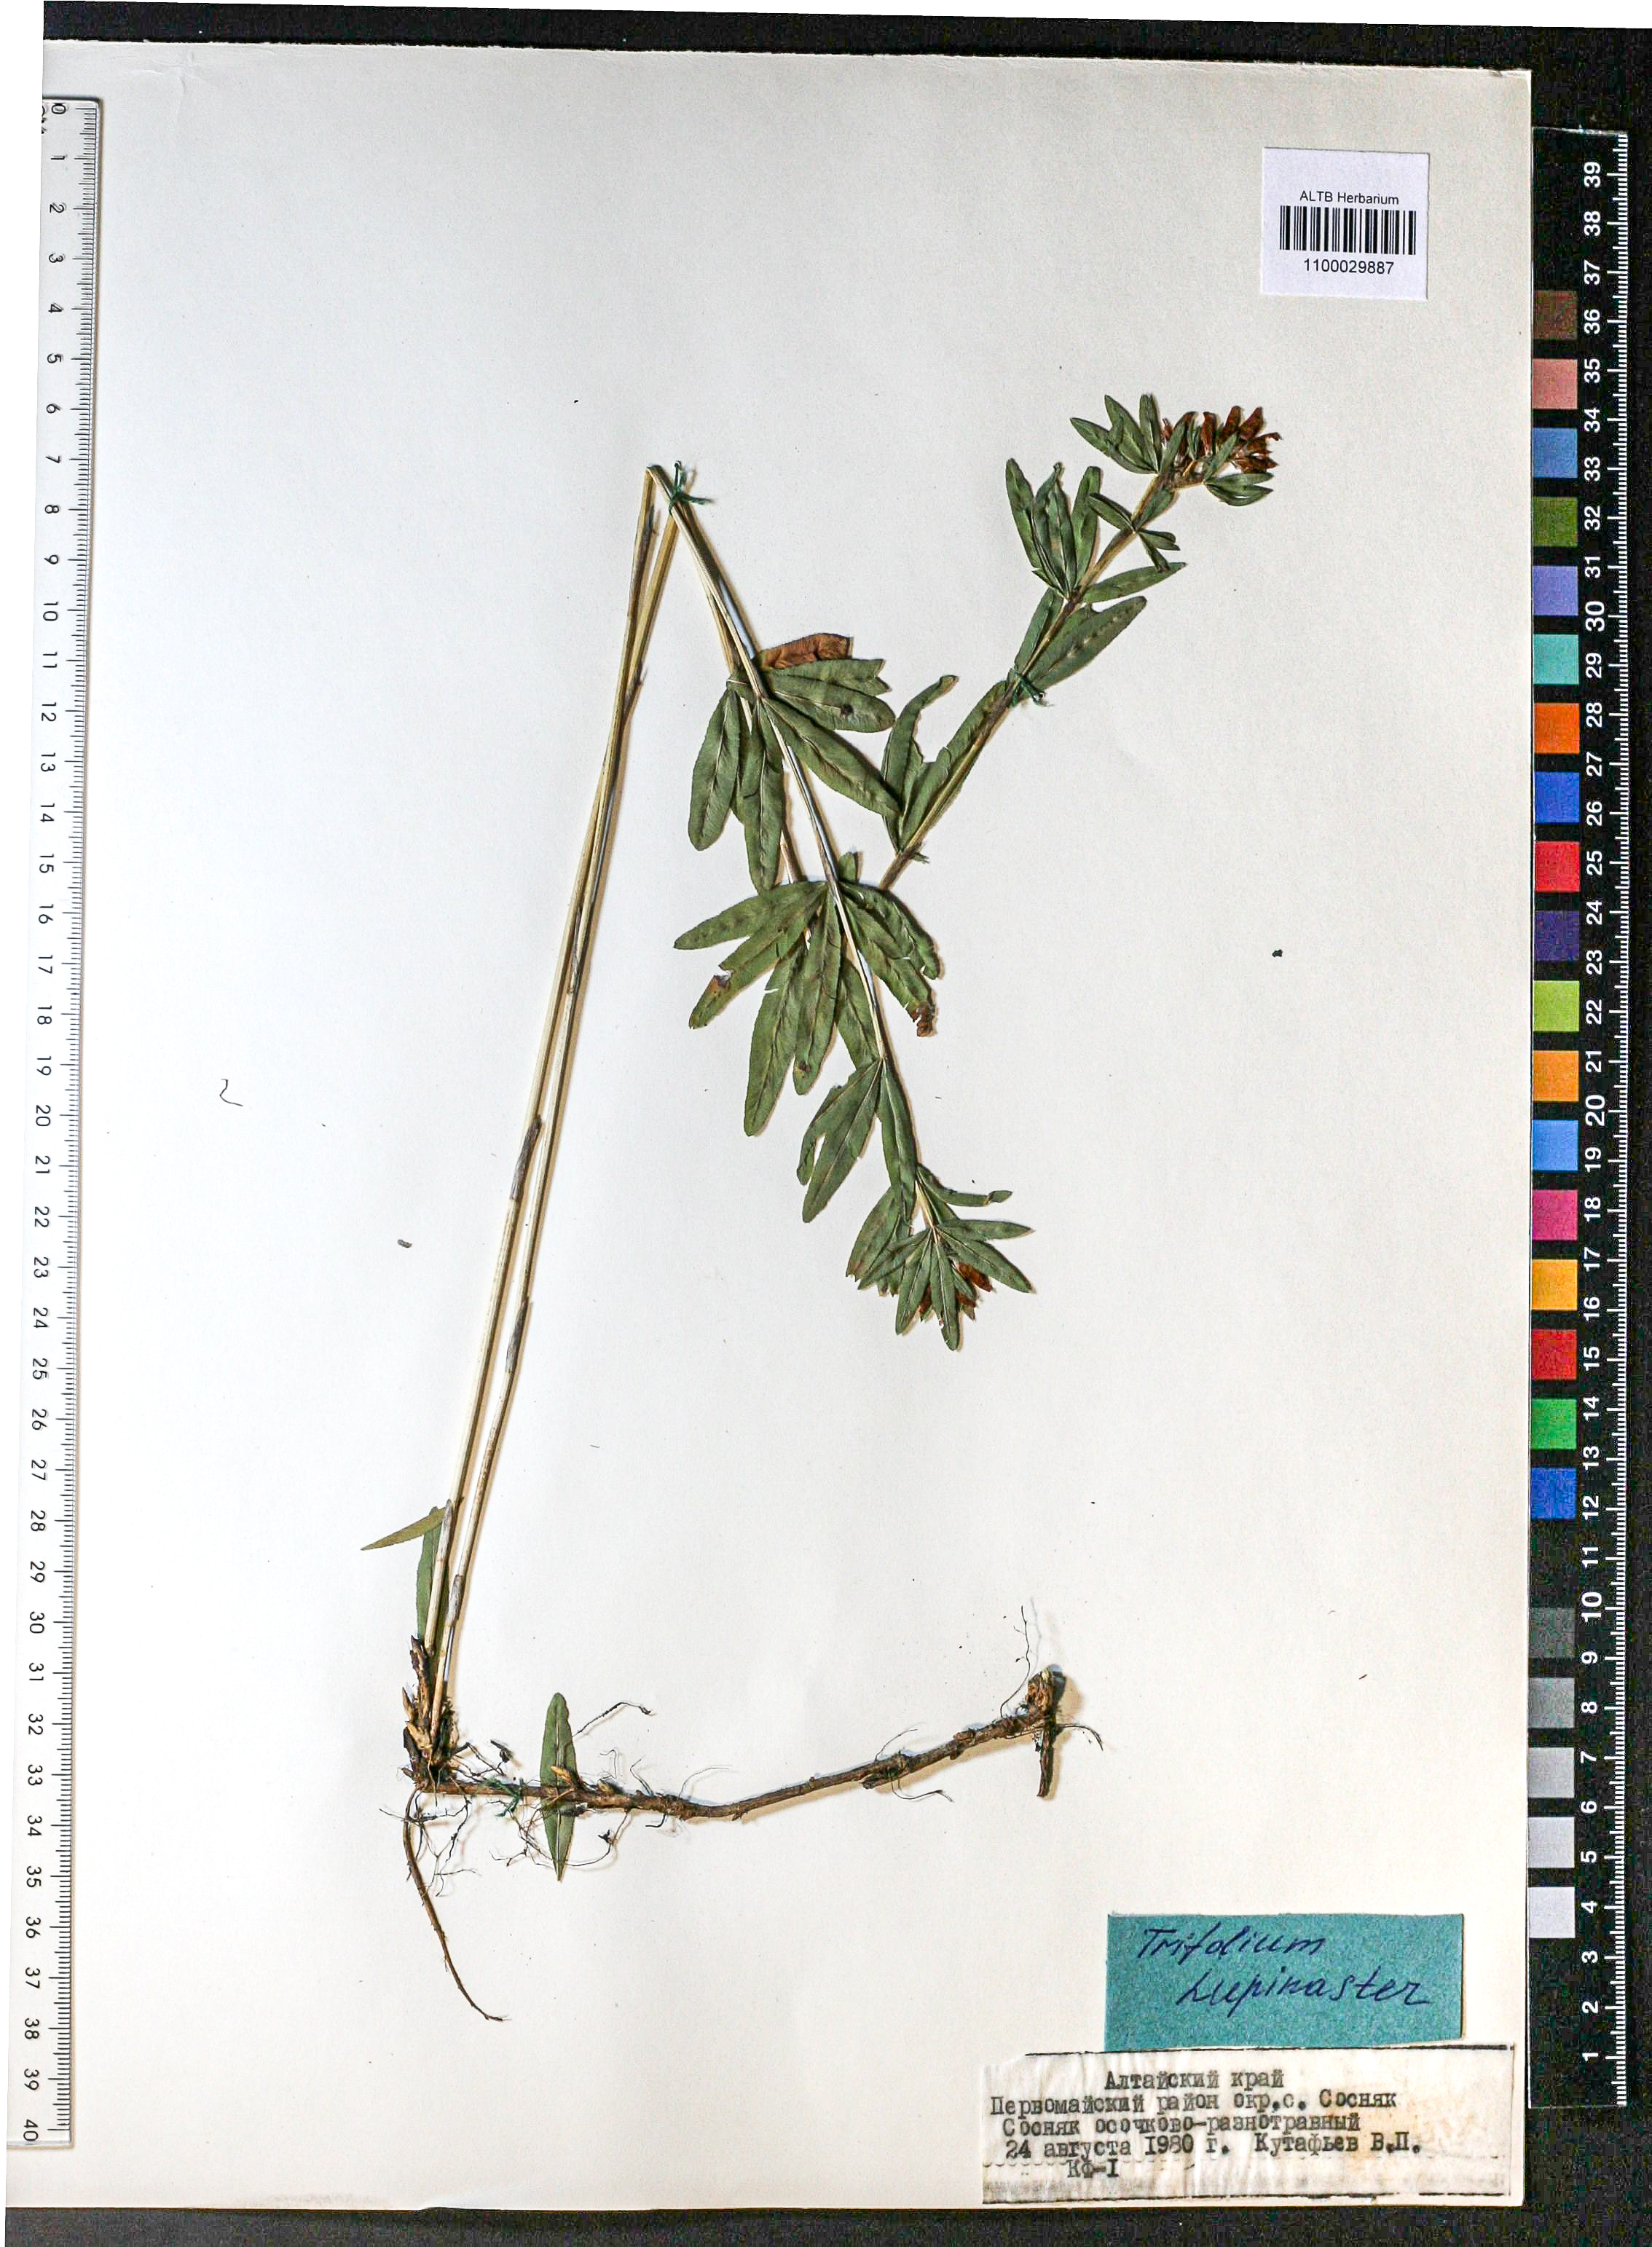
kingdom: Plantae
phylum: Tracheophyta
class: Magnoliopsida
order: Fabales
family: Fabaceae
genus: Trifolium
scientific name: Trifolium lupinaster
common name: Lupine clover
